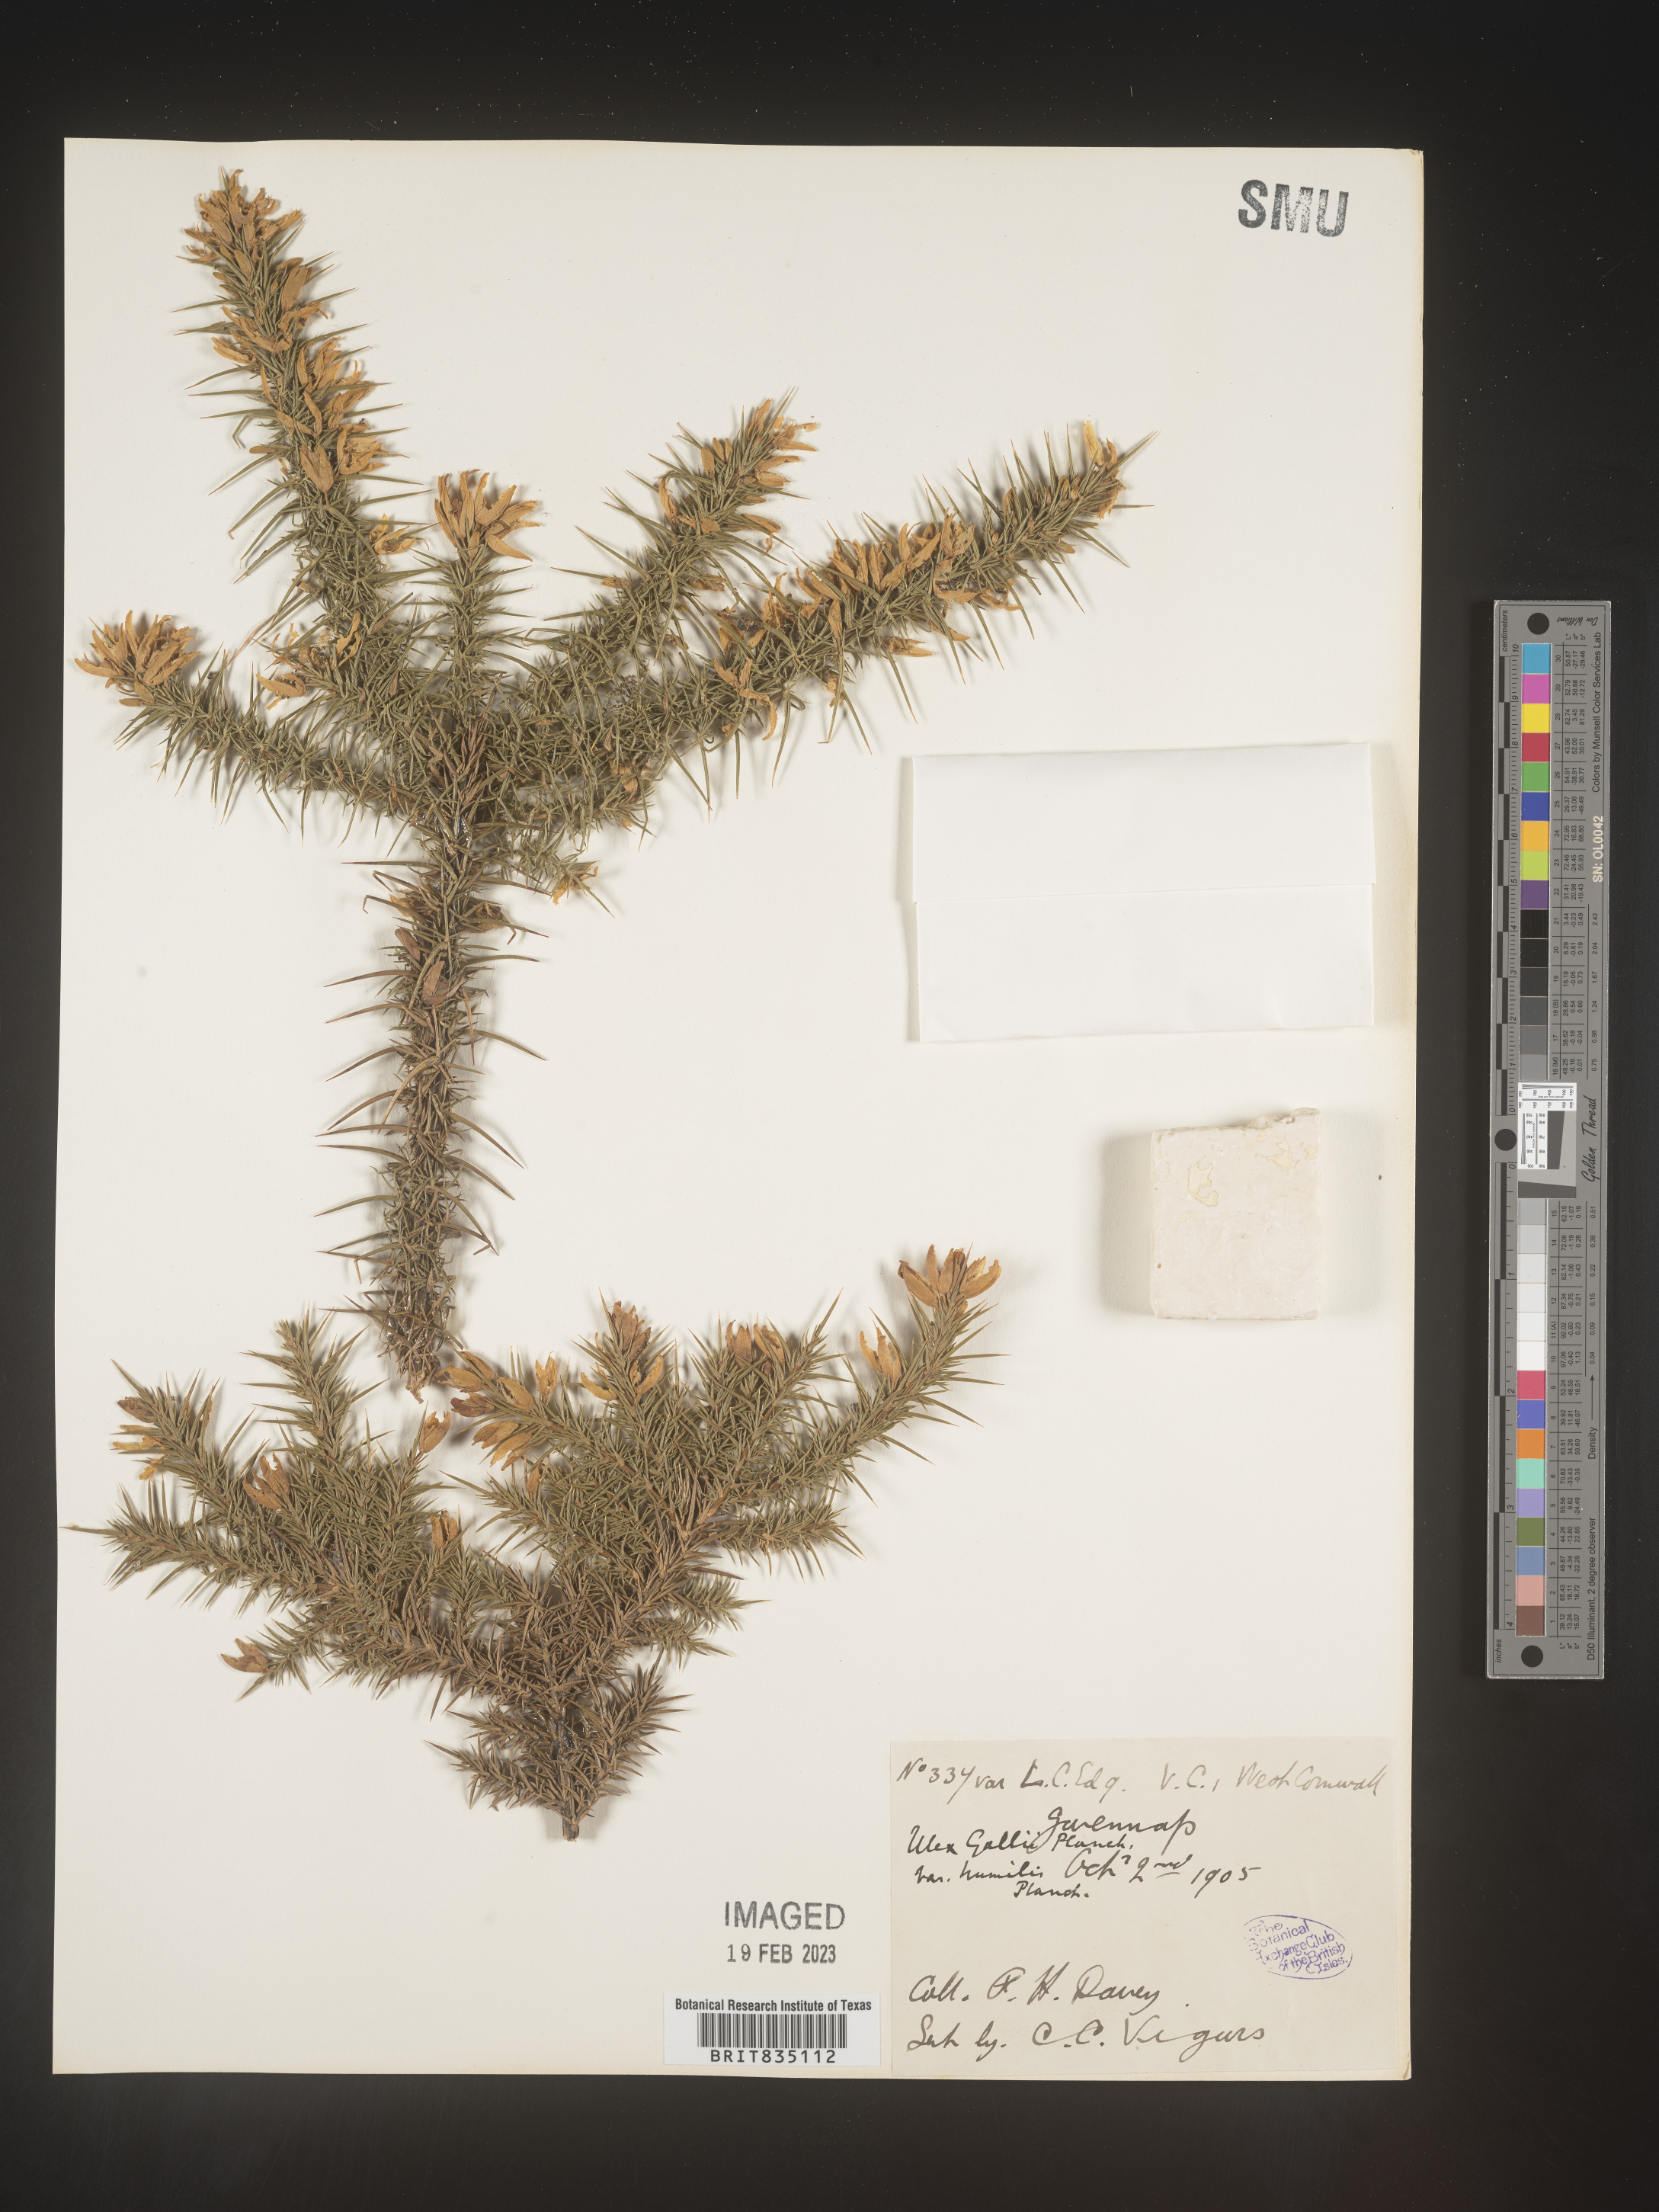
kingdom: Plantae
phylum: Tracheophyta
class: Magnoliopsida
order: Fabales
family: Fabaceae
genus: Ulex
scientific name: Ulex
